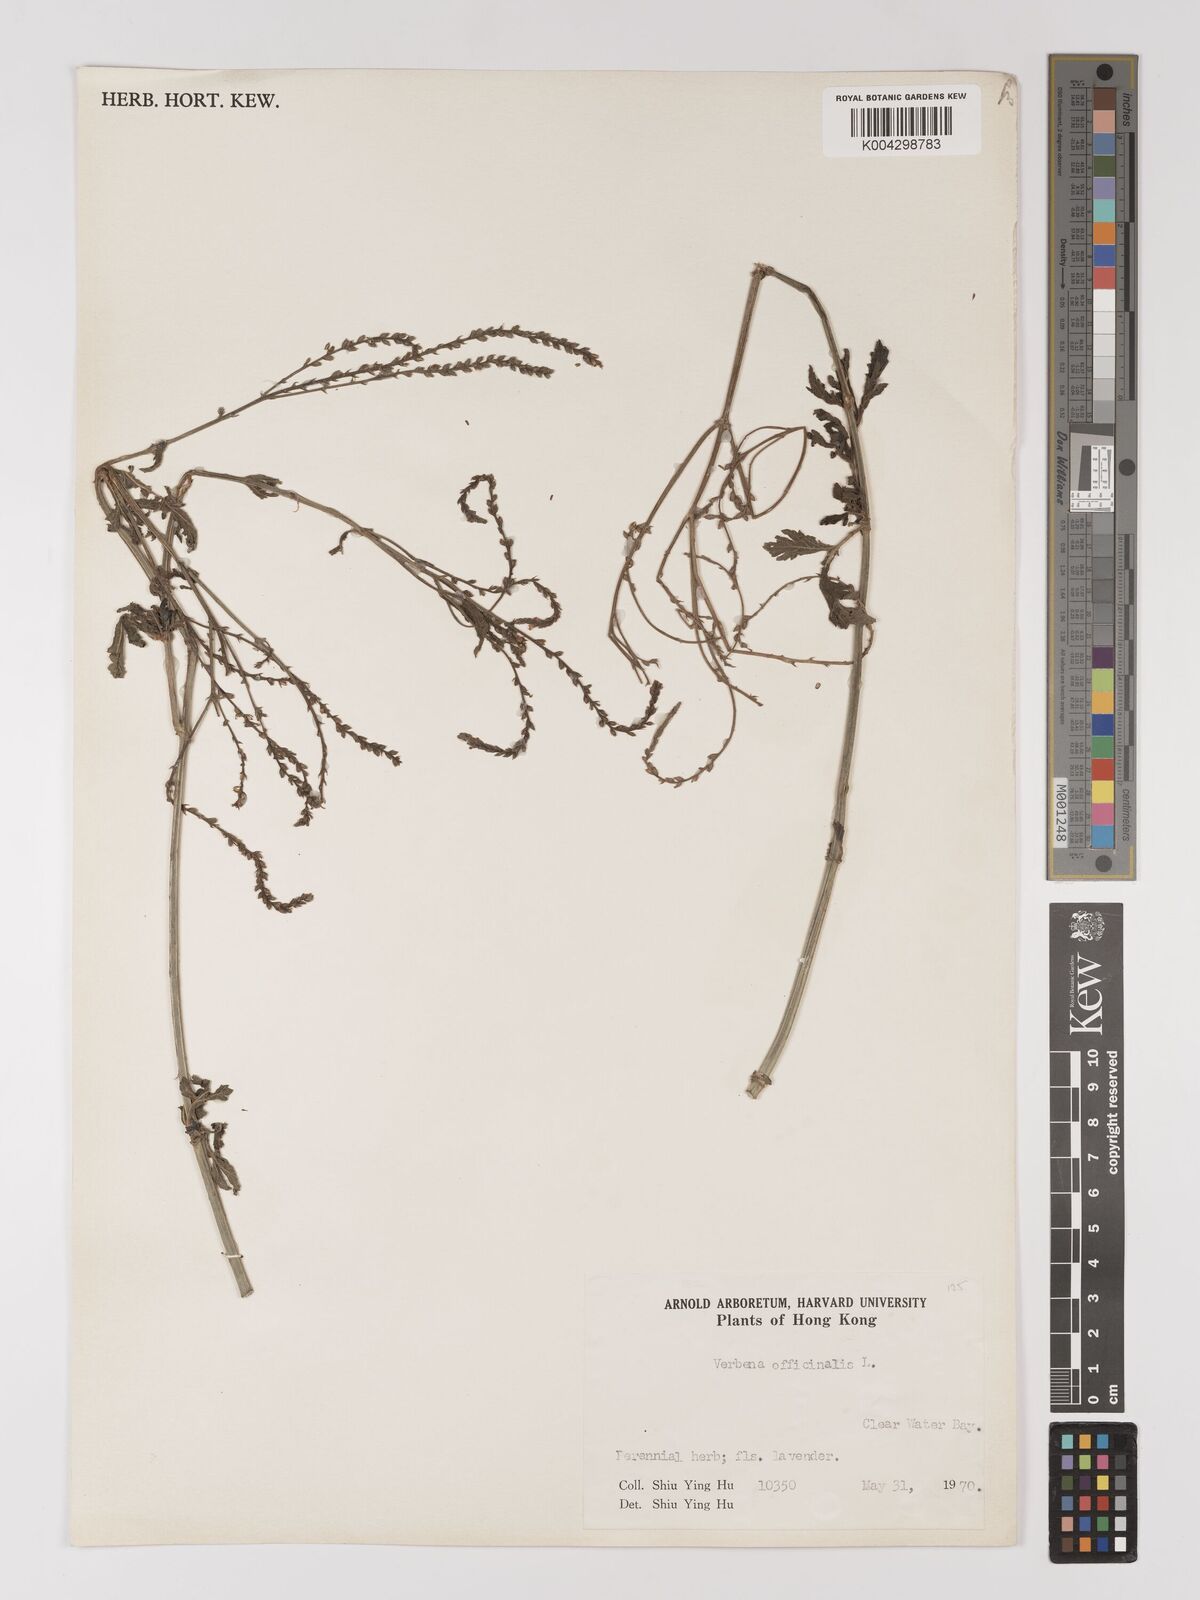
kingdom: Plantae
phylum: Tracheophyta
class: Magnoliopsida
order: Lamiales
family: Verbenaceae
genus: Verbena
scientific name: Verbena officinalis
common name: Vervain
